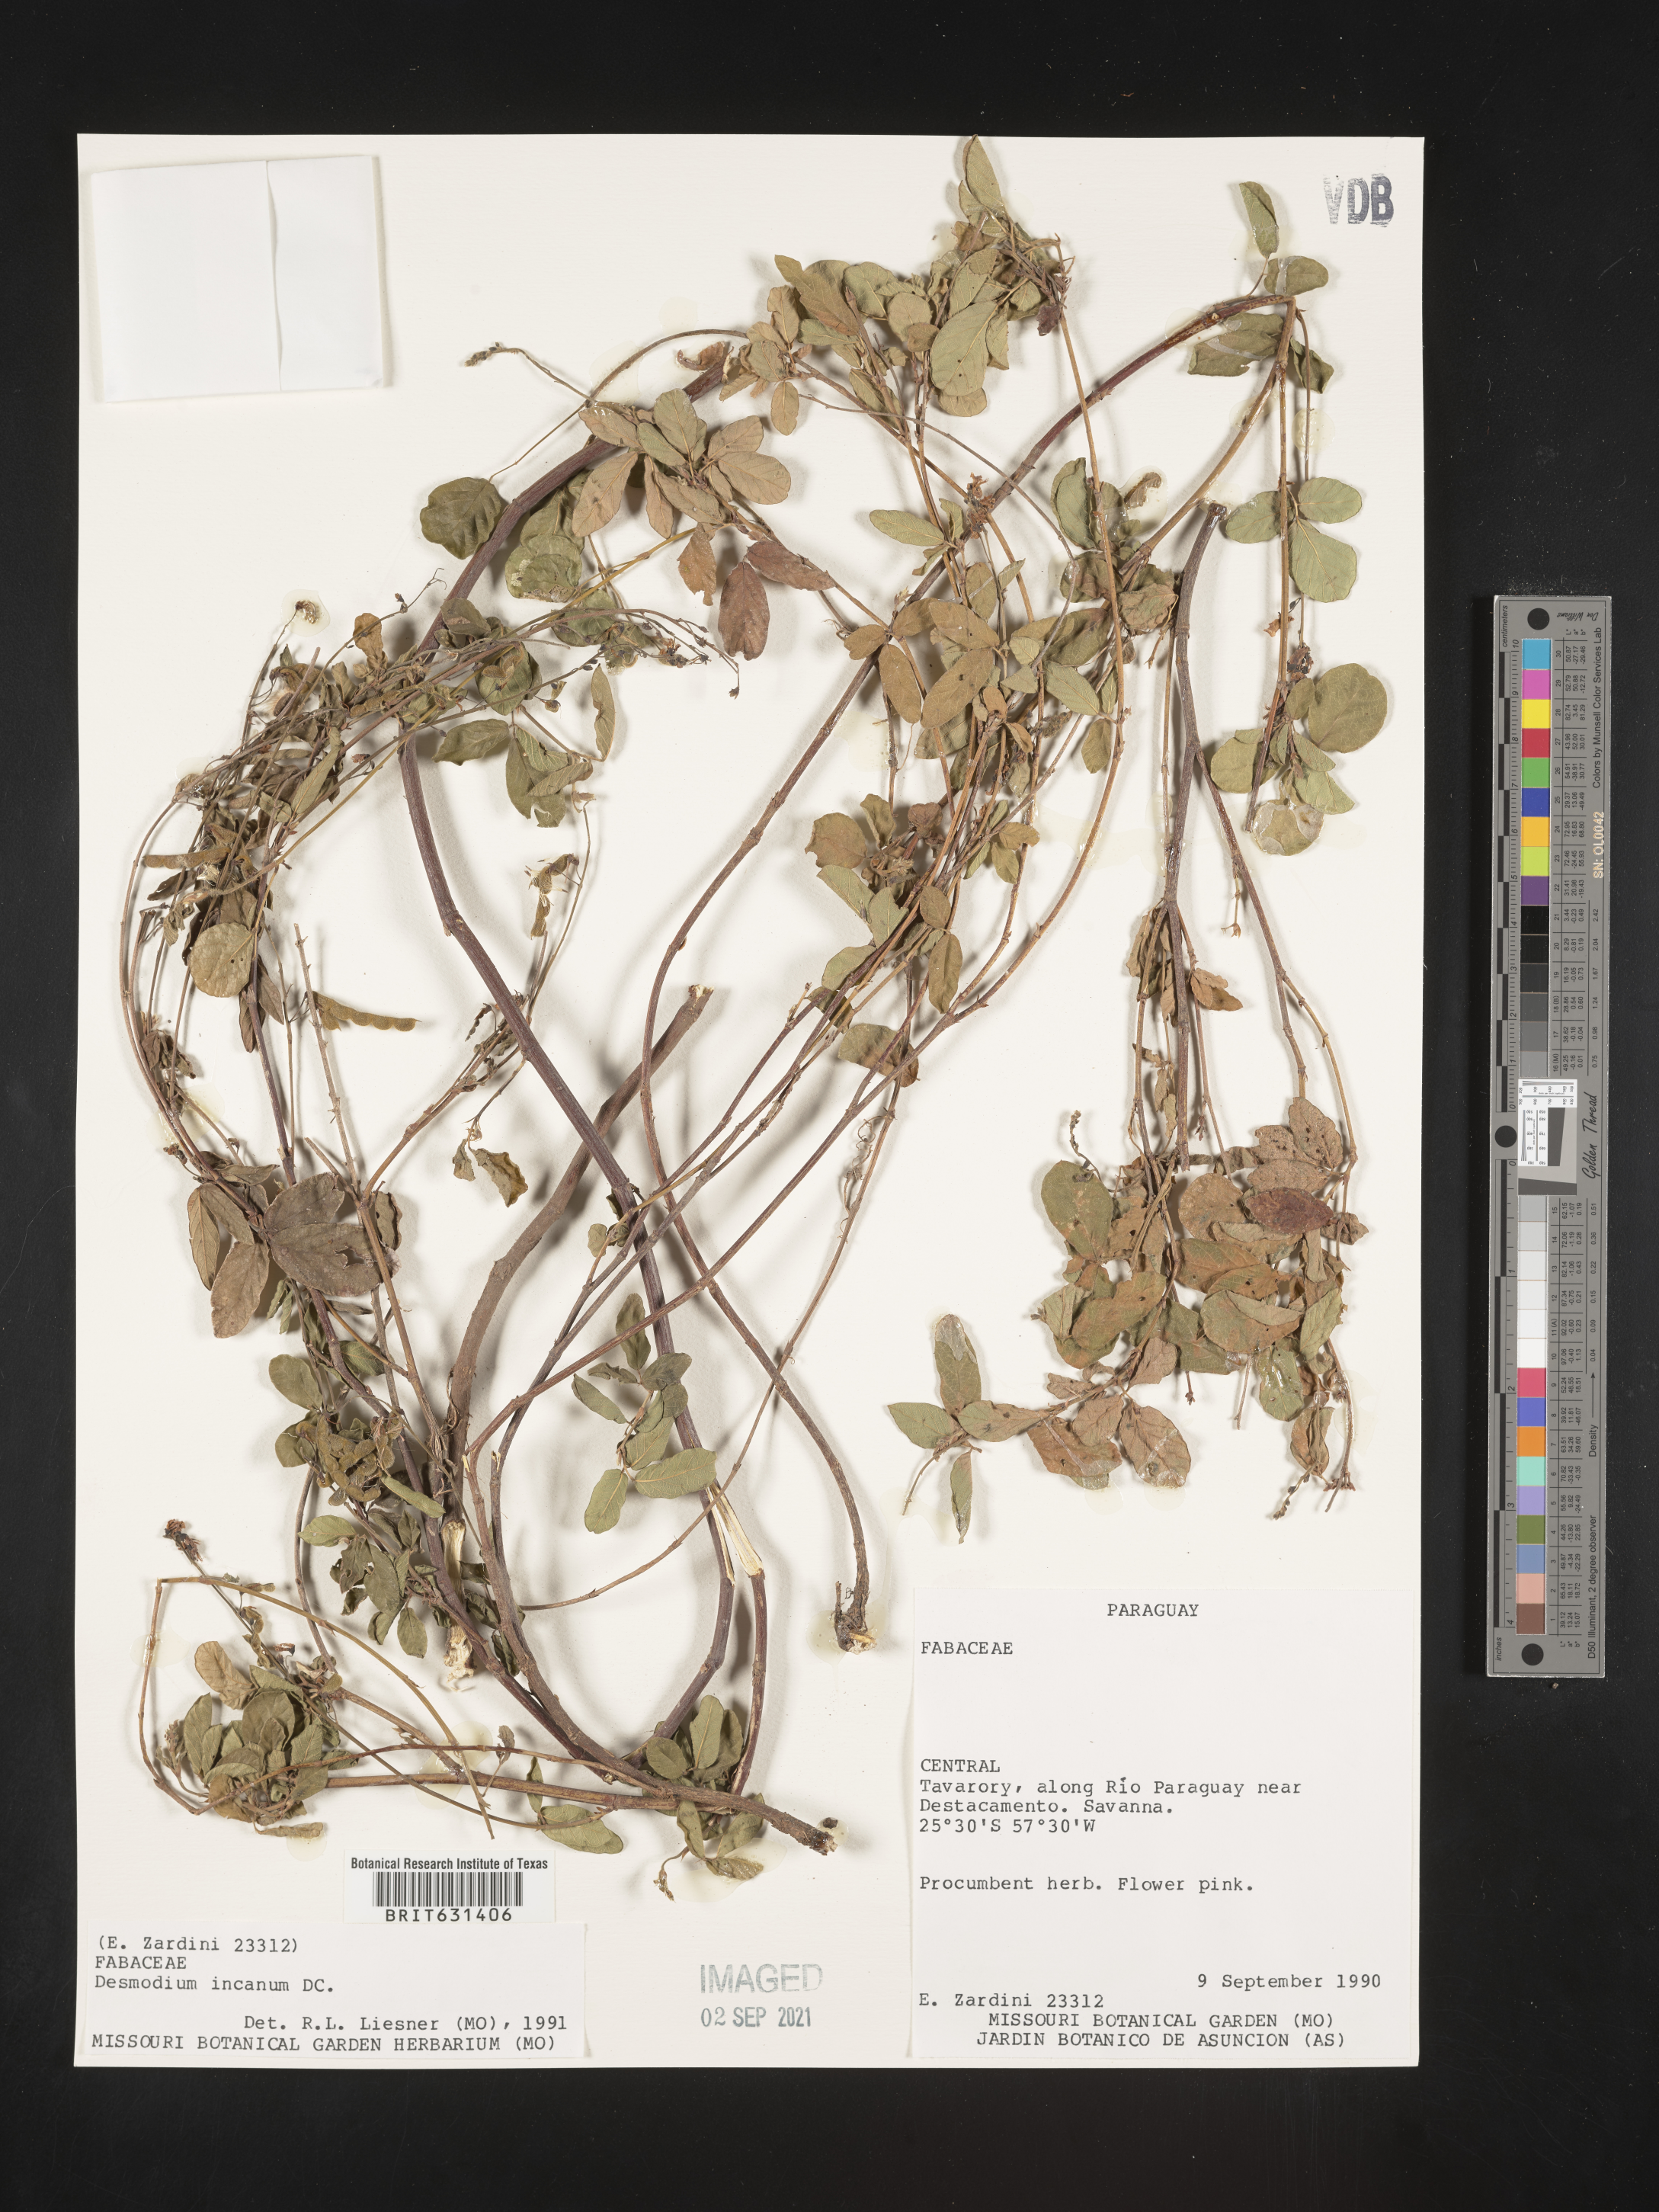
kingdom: Plantae
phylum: Tracheophyta
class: Magnoliopsida
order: Fabales
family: Fabaceae
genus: Desmodium
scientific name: Desmodium incanum
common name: Tickclover
